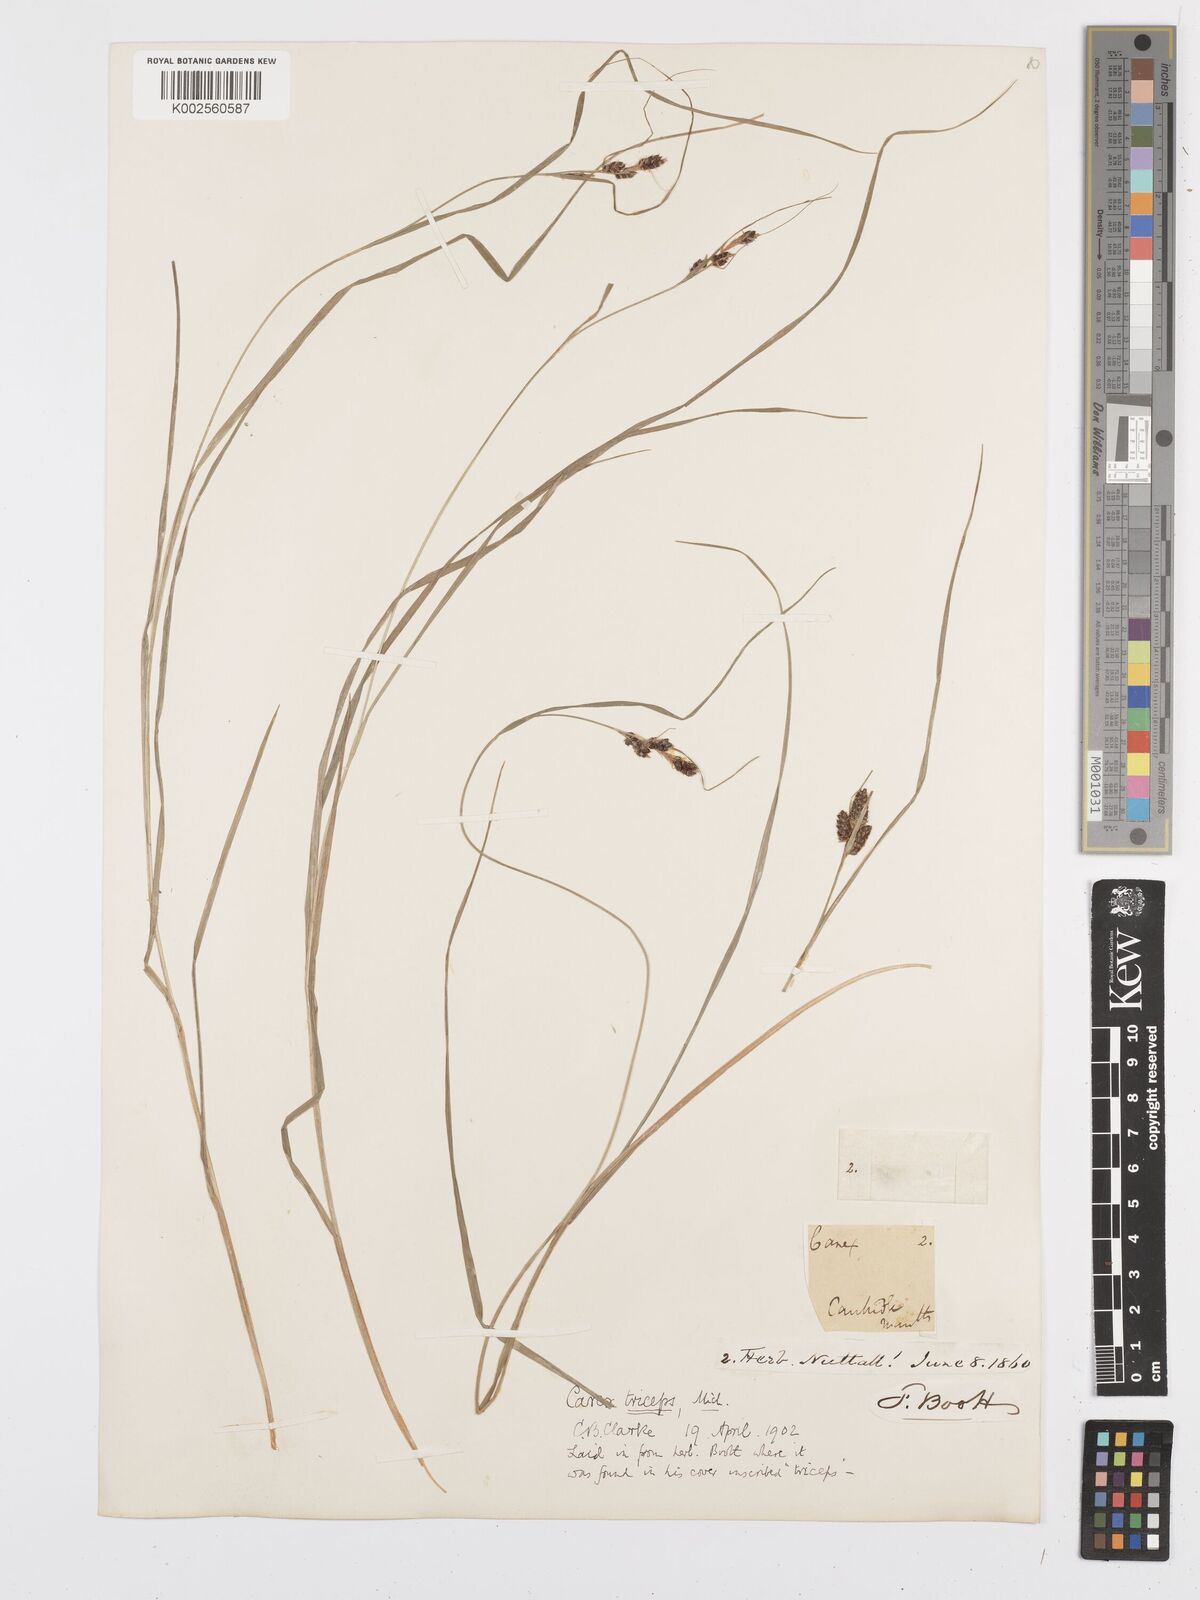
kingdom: Plantae
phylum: Tracheophyta
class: Liliopsida
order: Poales
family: Cyperaceae
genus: Carex
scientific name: Carex complanata
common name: Hirsute sedge
